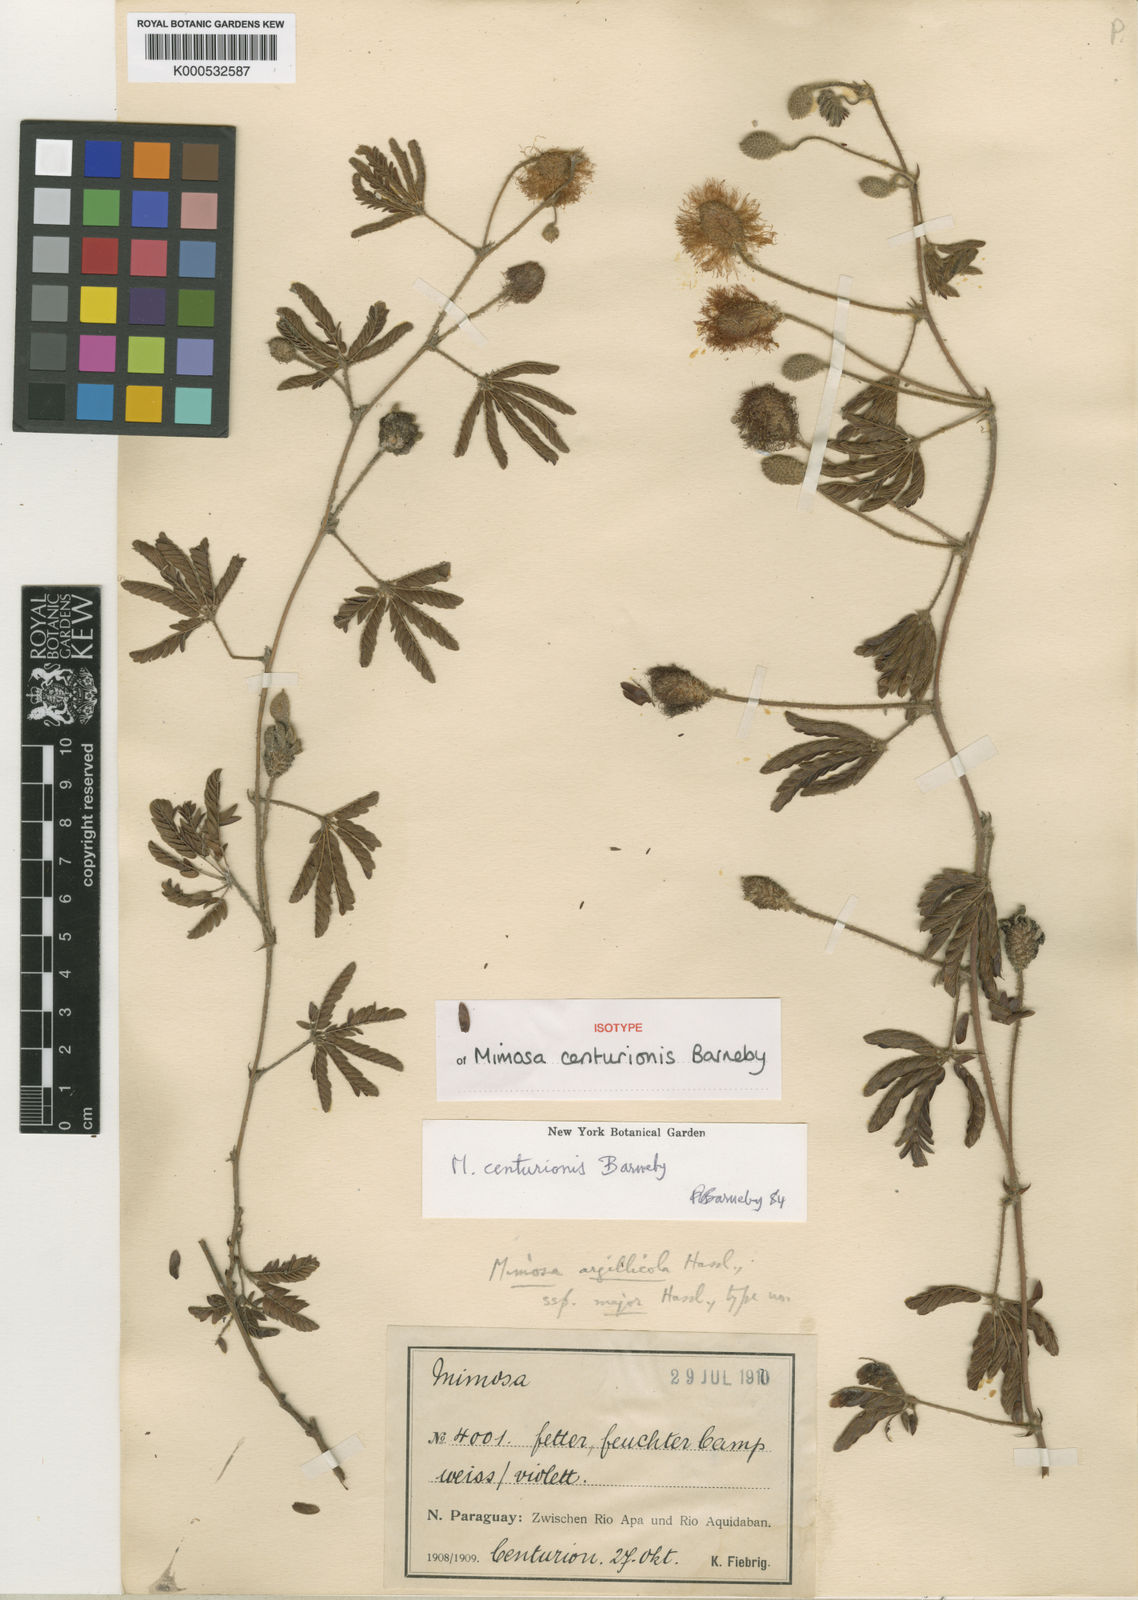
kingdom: Plantae
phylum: Tracheophyta
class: Magnoliopsida
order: Fabales
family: Fabaceae
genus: Mimosa
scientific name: Mimosa centurionis
